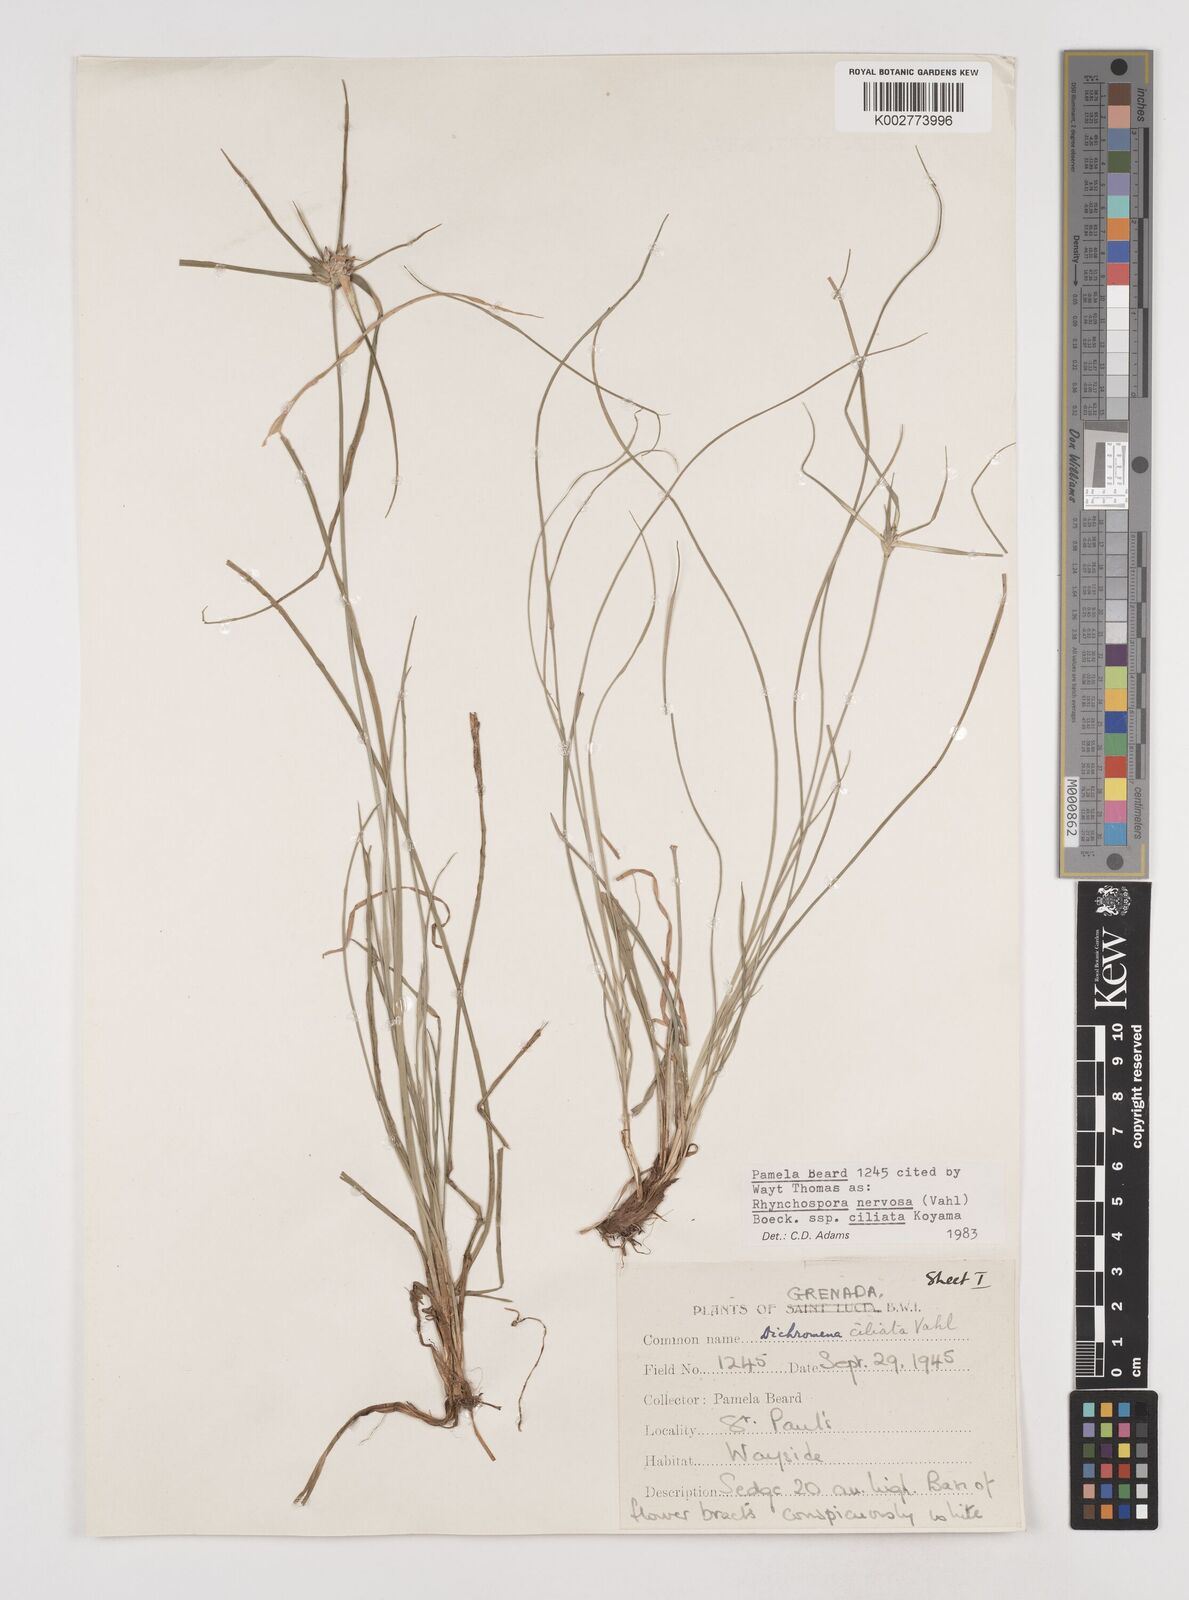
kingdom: Plantae
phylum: Tracheophyta
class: Liliopsida
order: Poales
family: Cyperaceae
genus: Rhynchospora
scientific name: Rhynchospora pura
